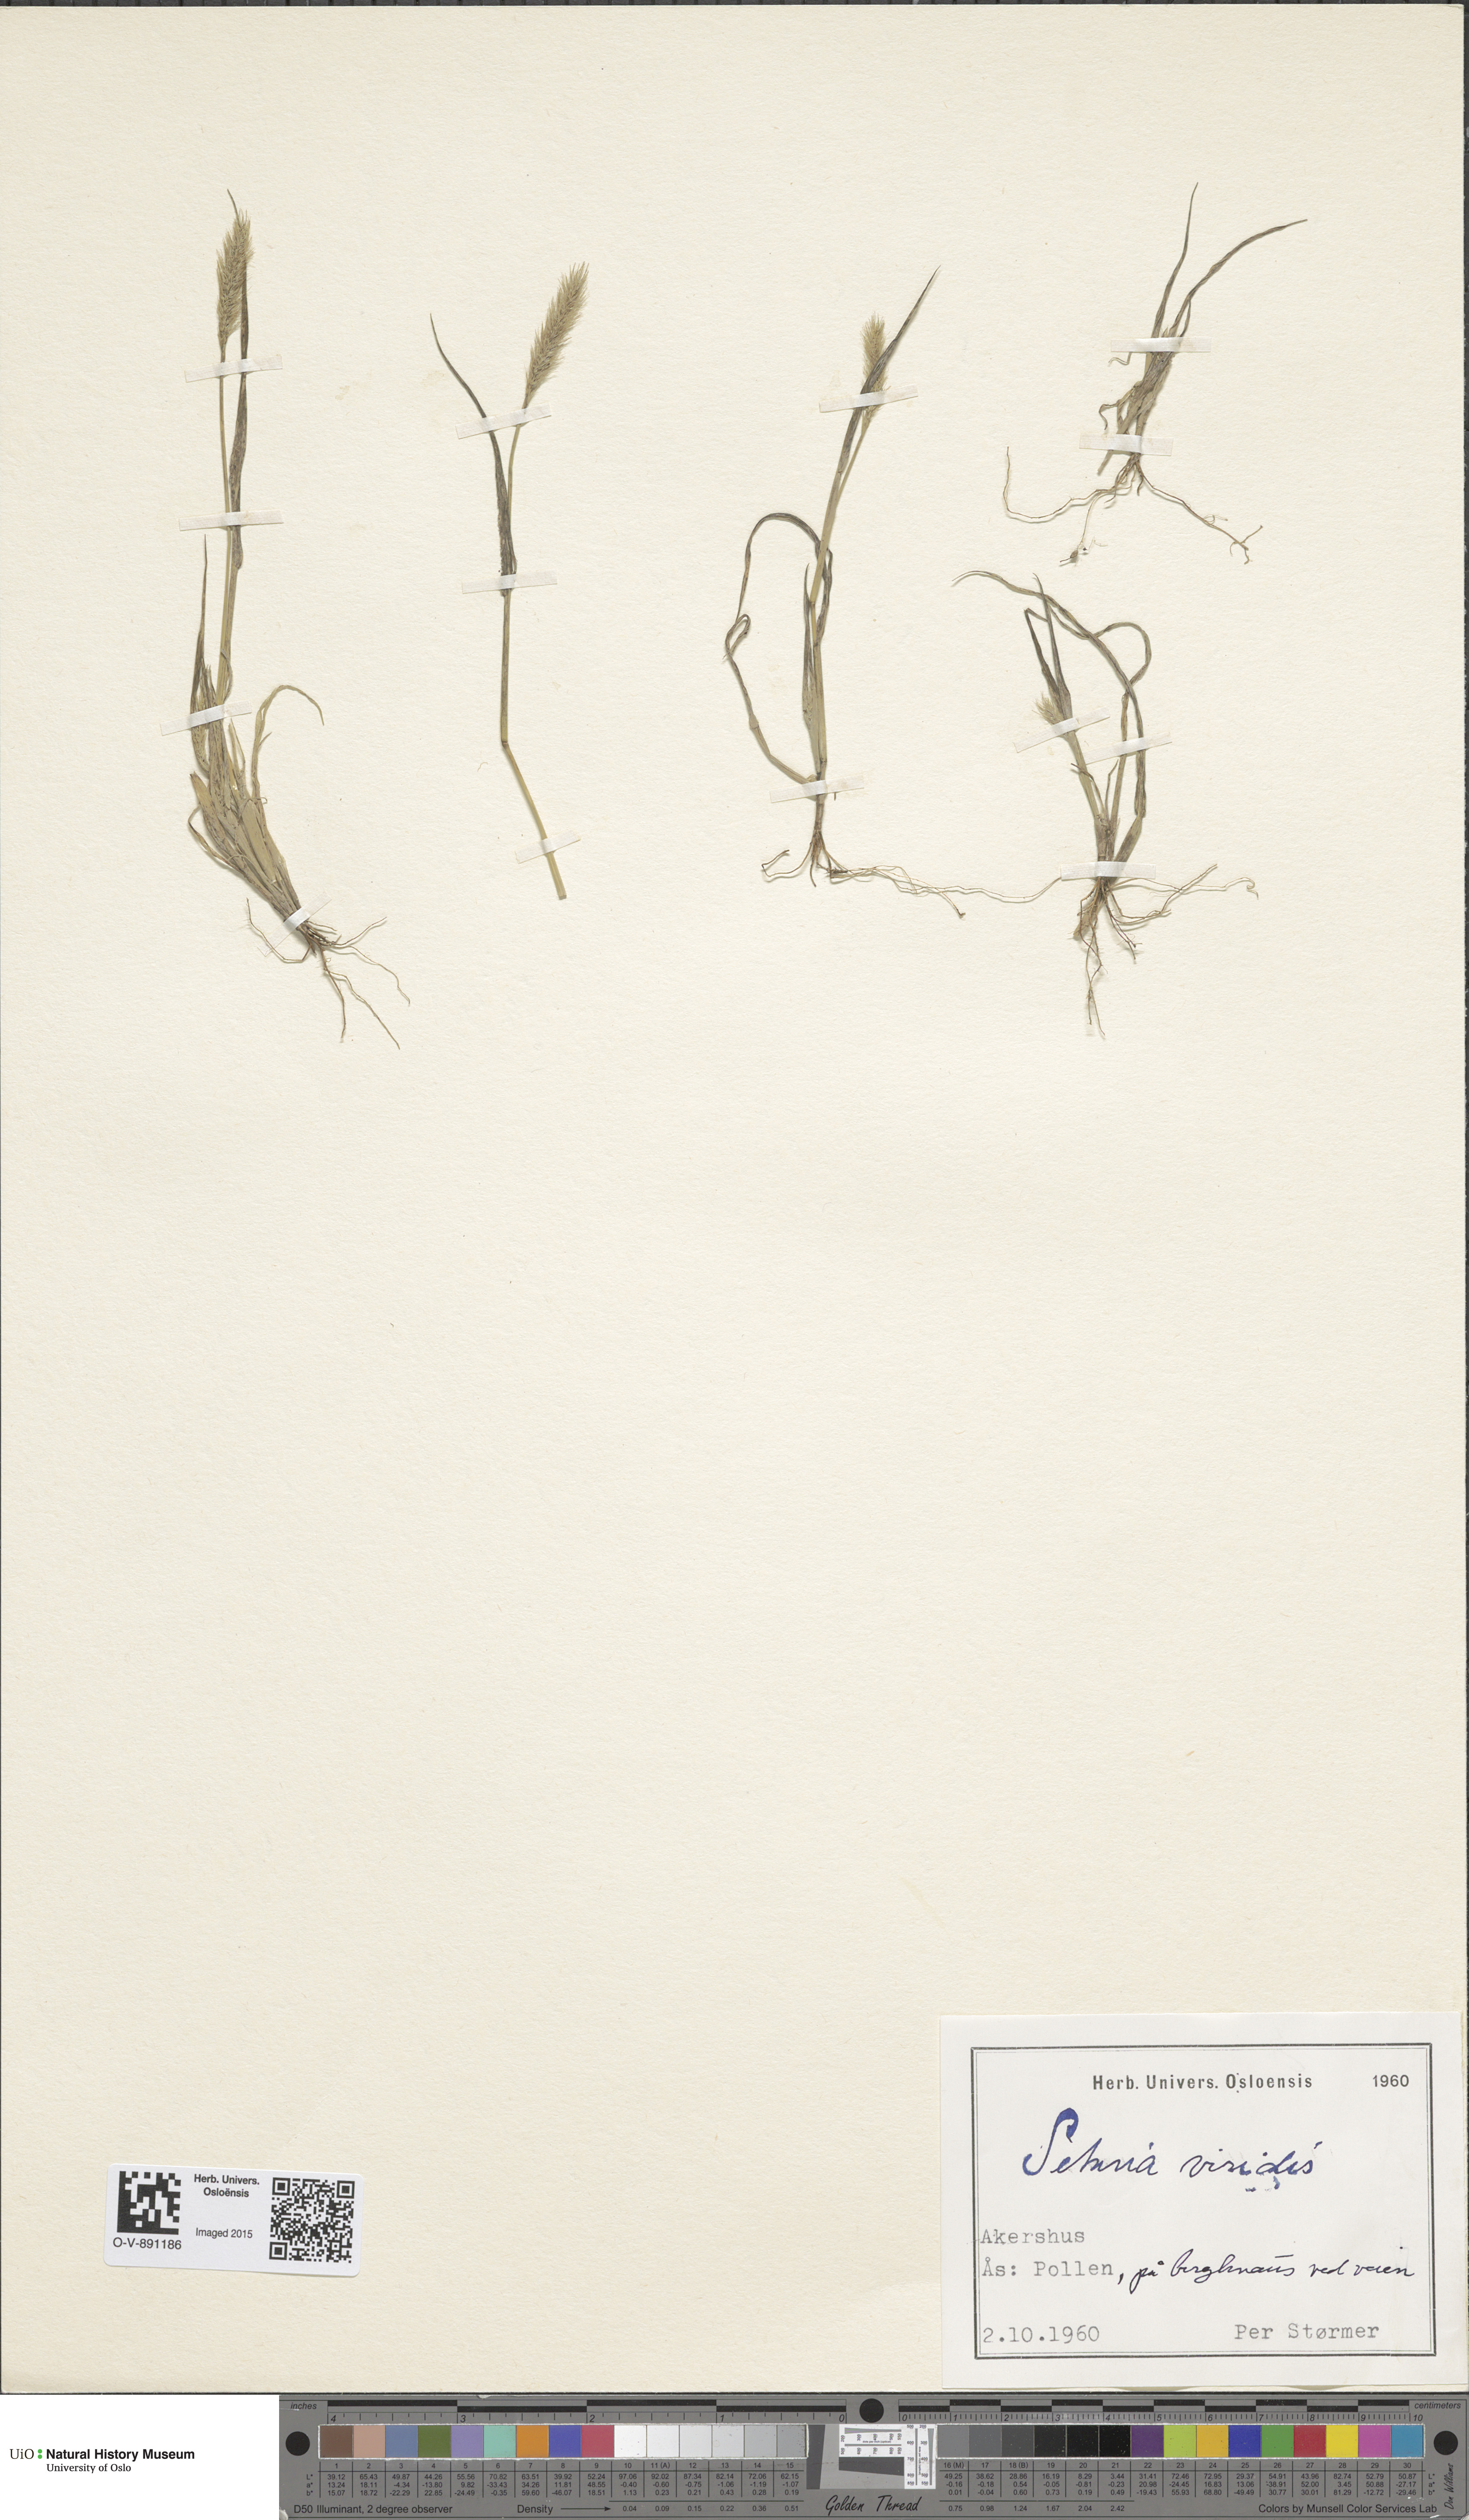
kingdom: Plantae
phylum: Tracheophyta
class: Liliopsida
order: Poales
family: Poaceae
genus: Setaria
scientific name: Setaria viridis
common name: Green bristlegrass
